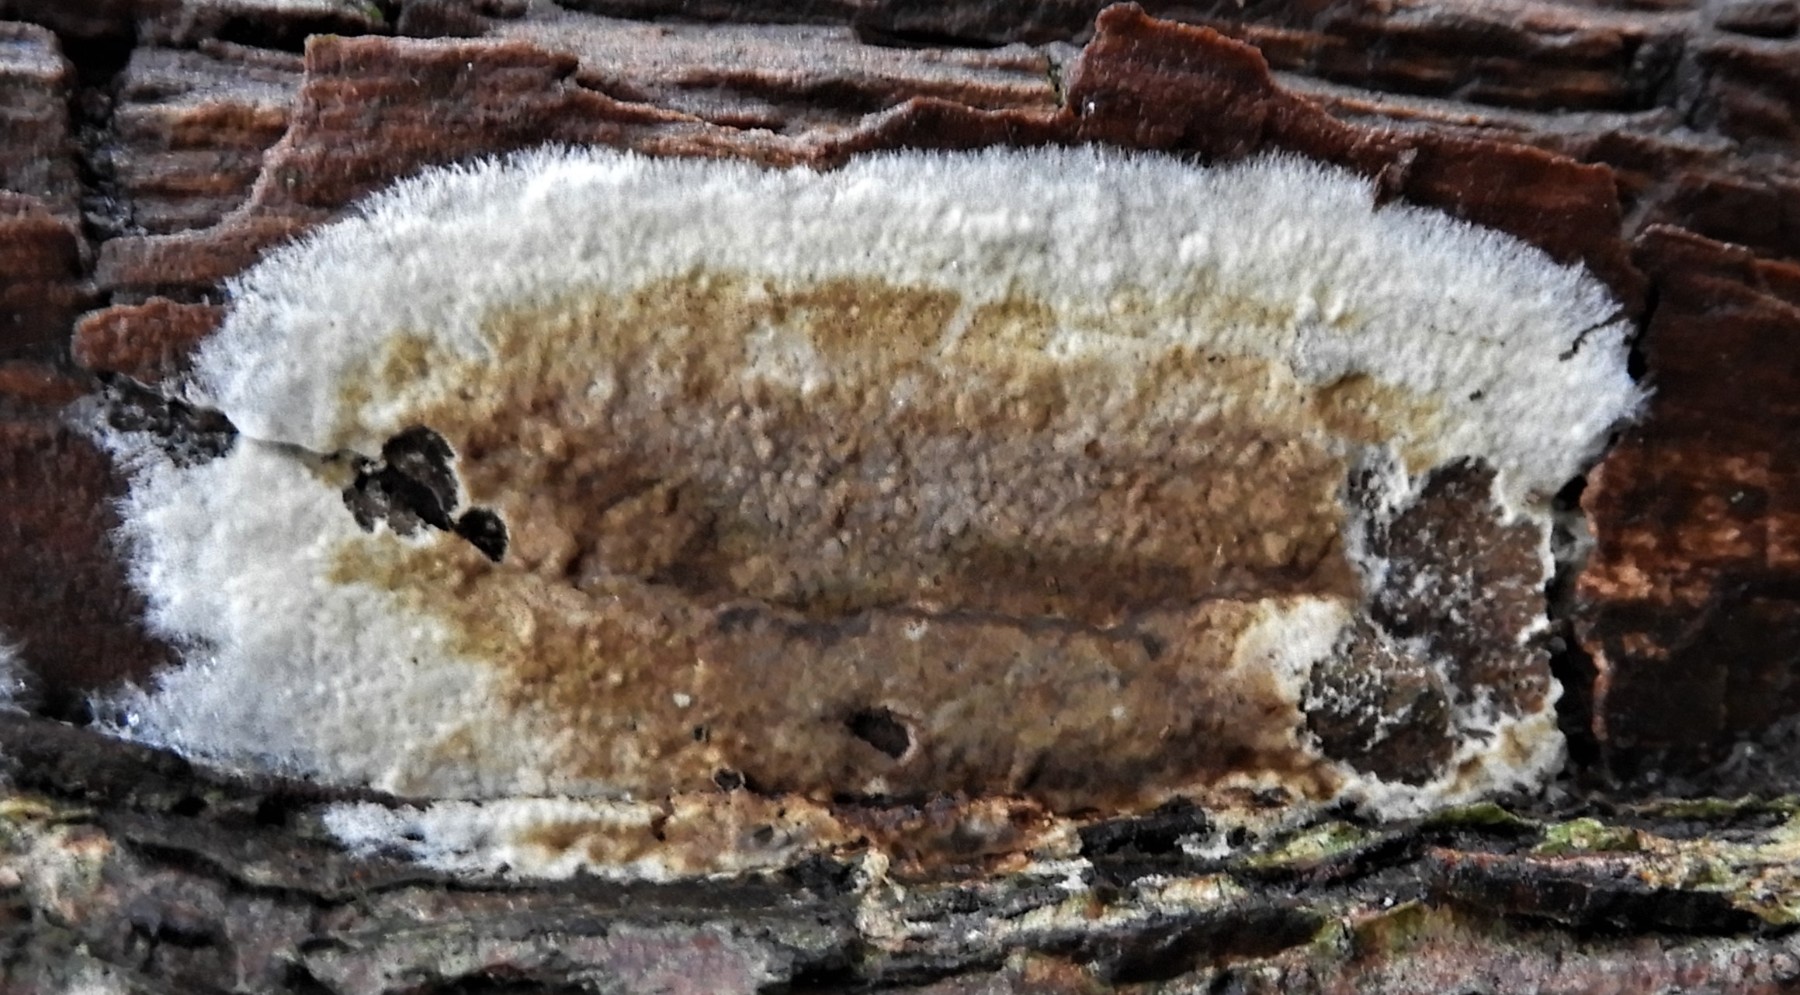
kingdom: Fungi
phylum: Basidiomycota
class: Agaricomycetes
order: Boletales
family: Coniophoraceae
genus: Coniophora
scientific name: Coniophora puteana
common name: gul tømmersvamp
